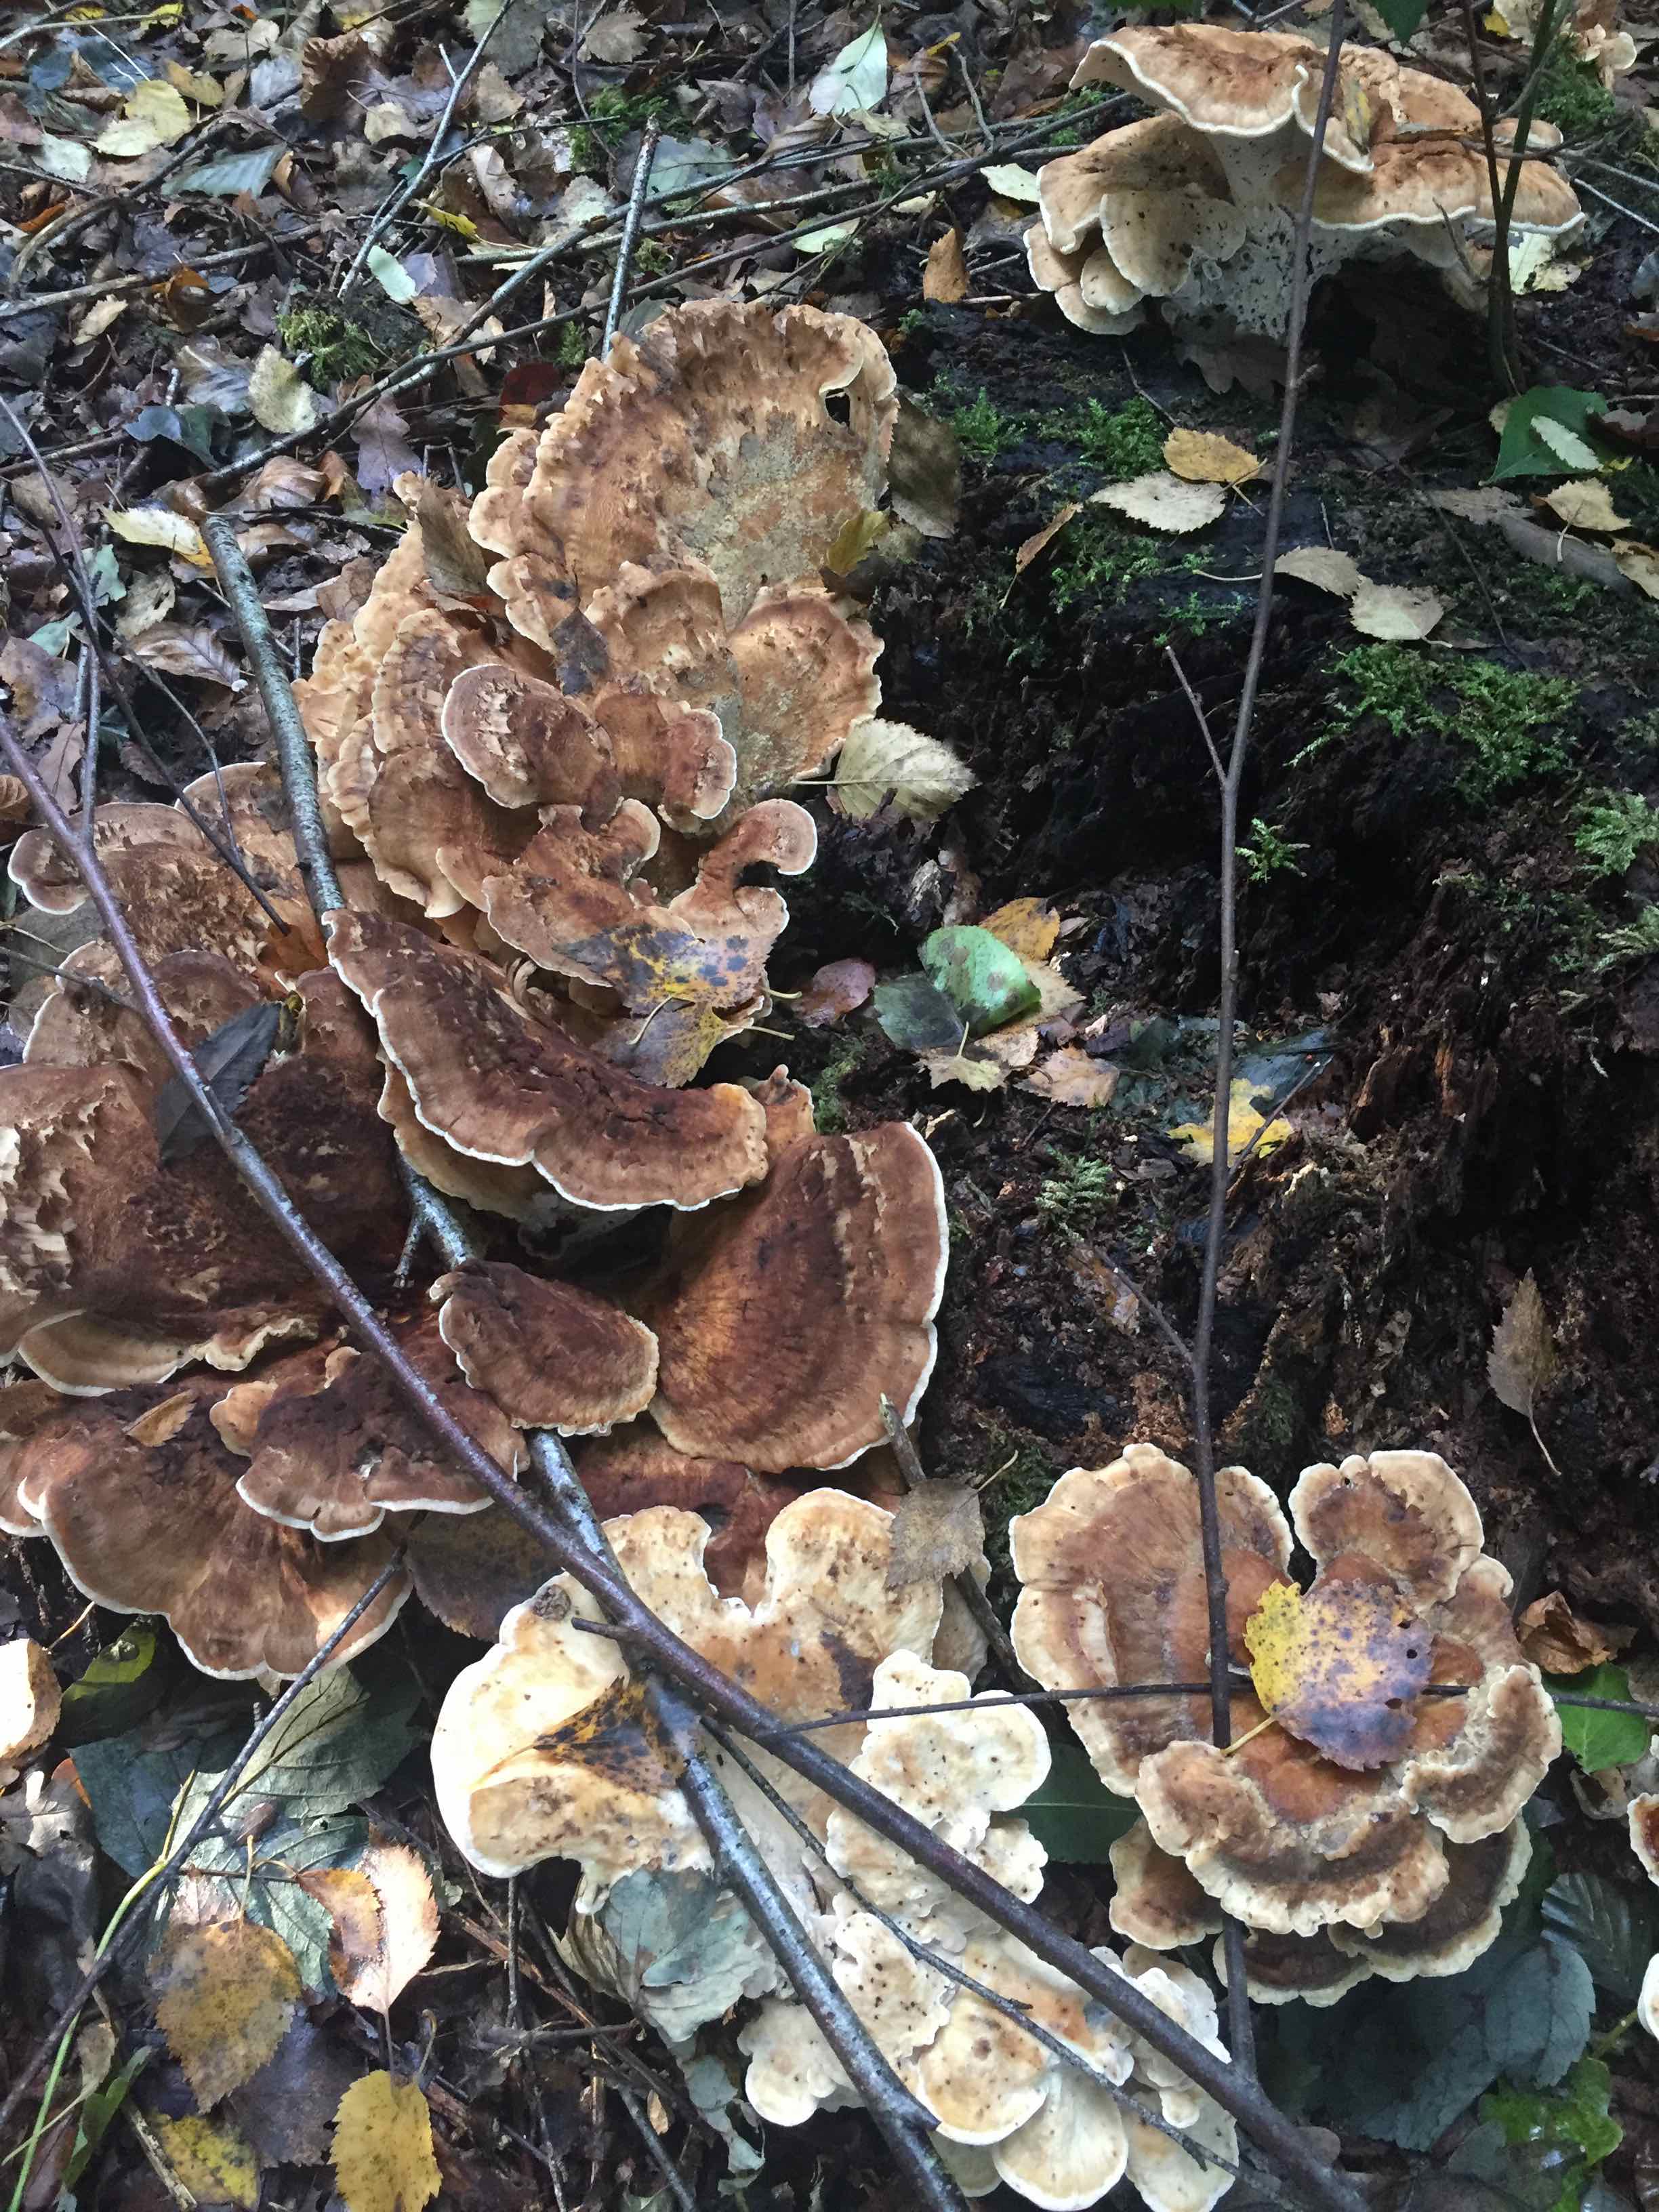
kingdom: Fungi
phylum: Basidiomycota
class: Agaricomycetes
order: Polyporales
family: Meripilaceae
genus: Meripilus
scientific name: Meripilus giganteus
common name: kæmpeporesvamp
